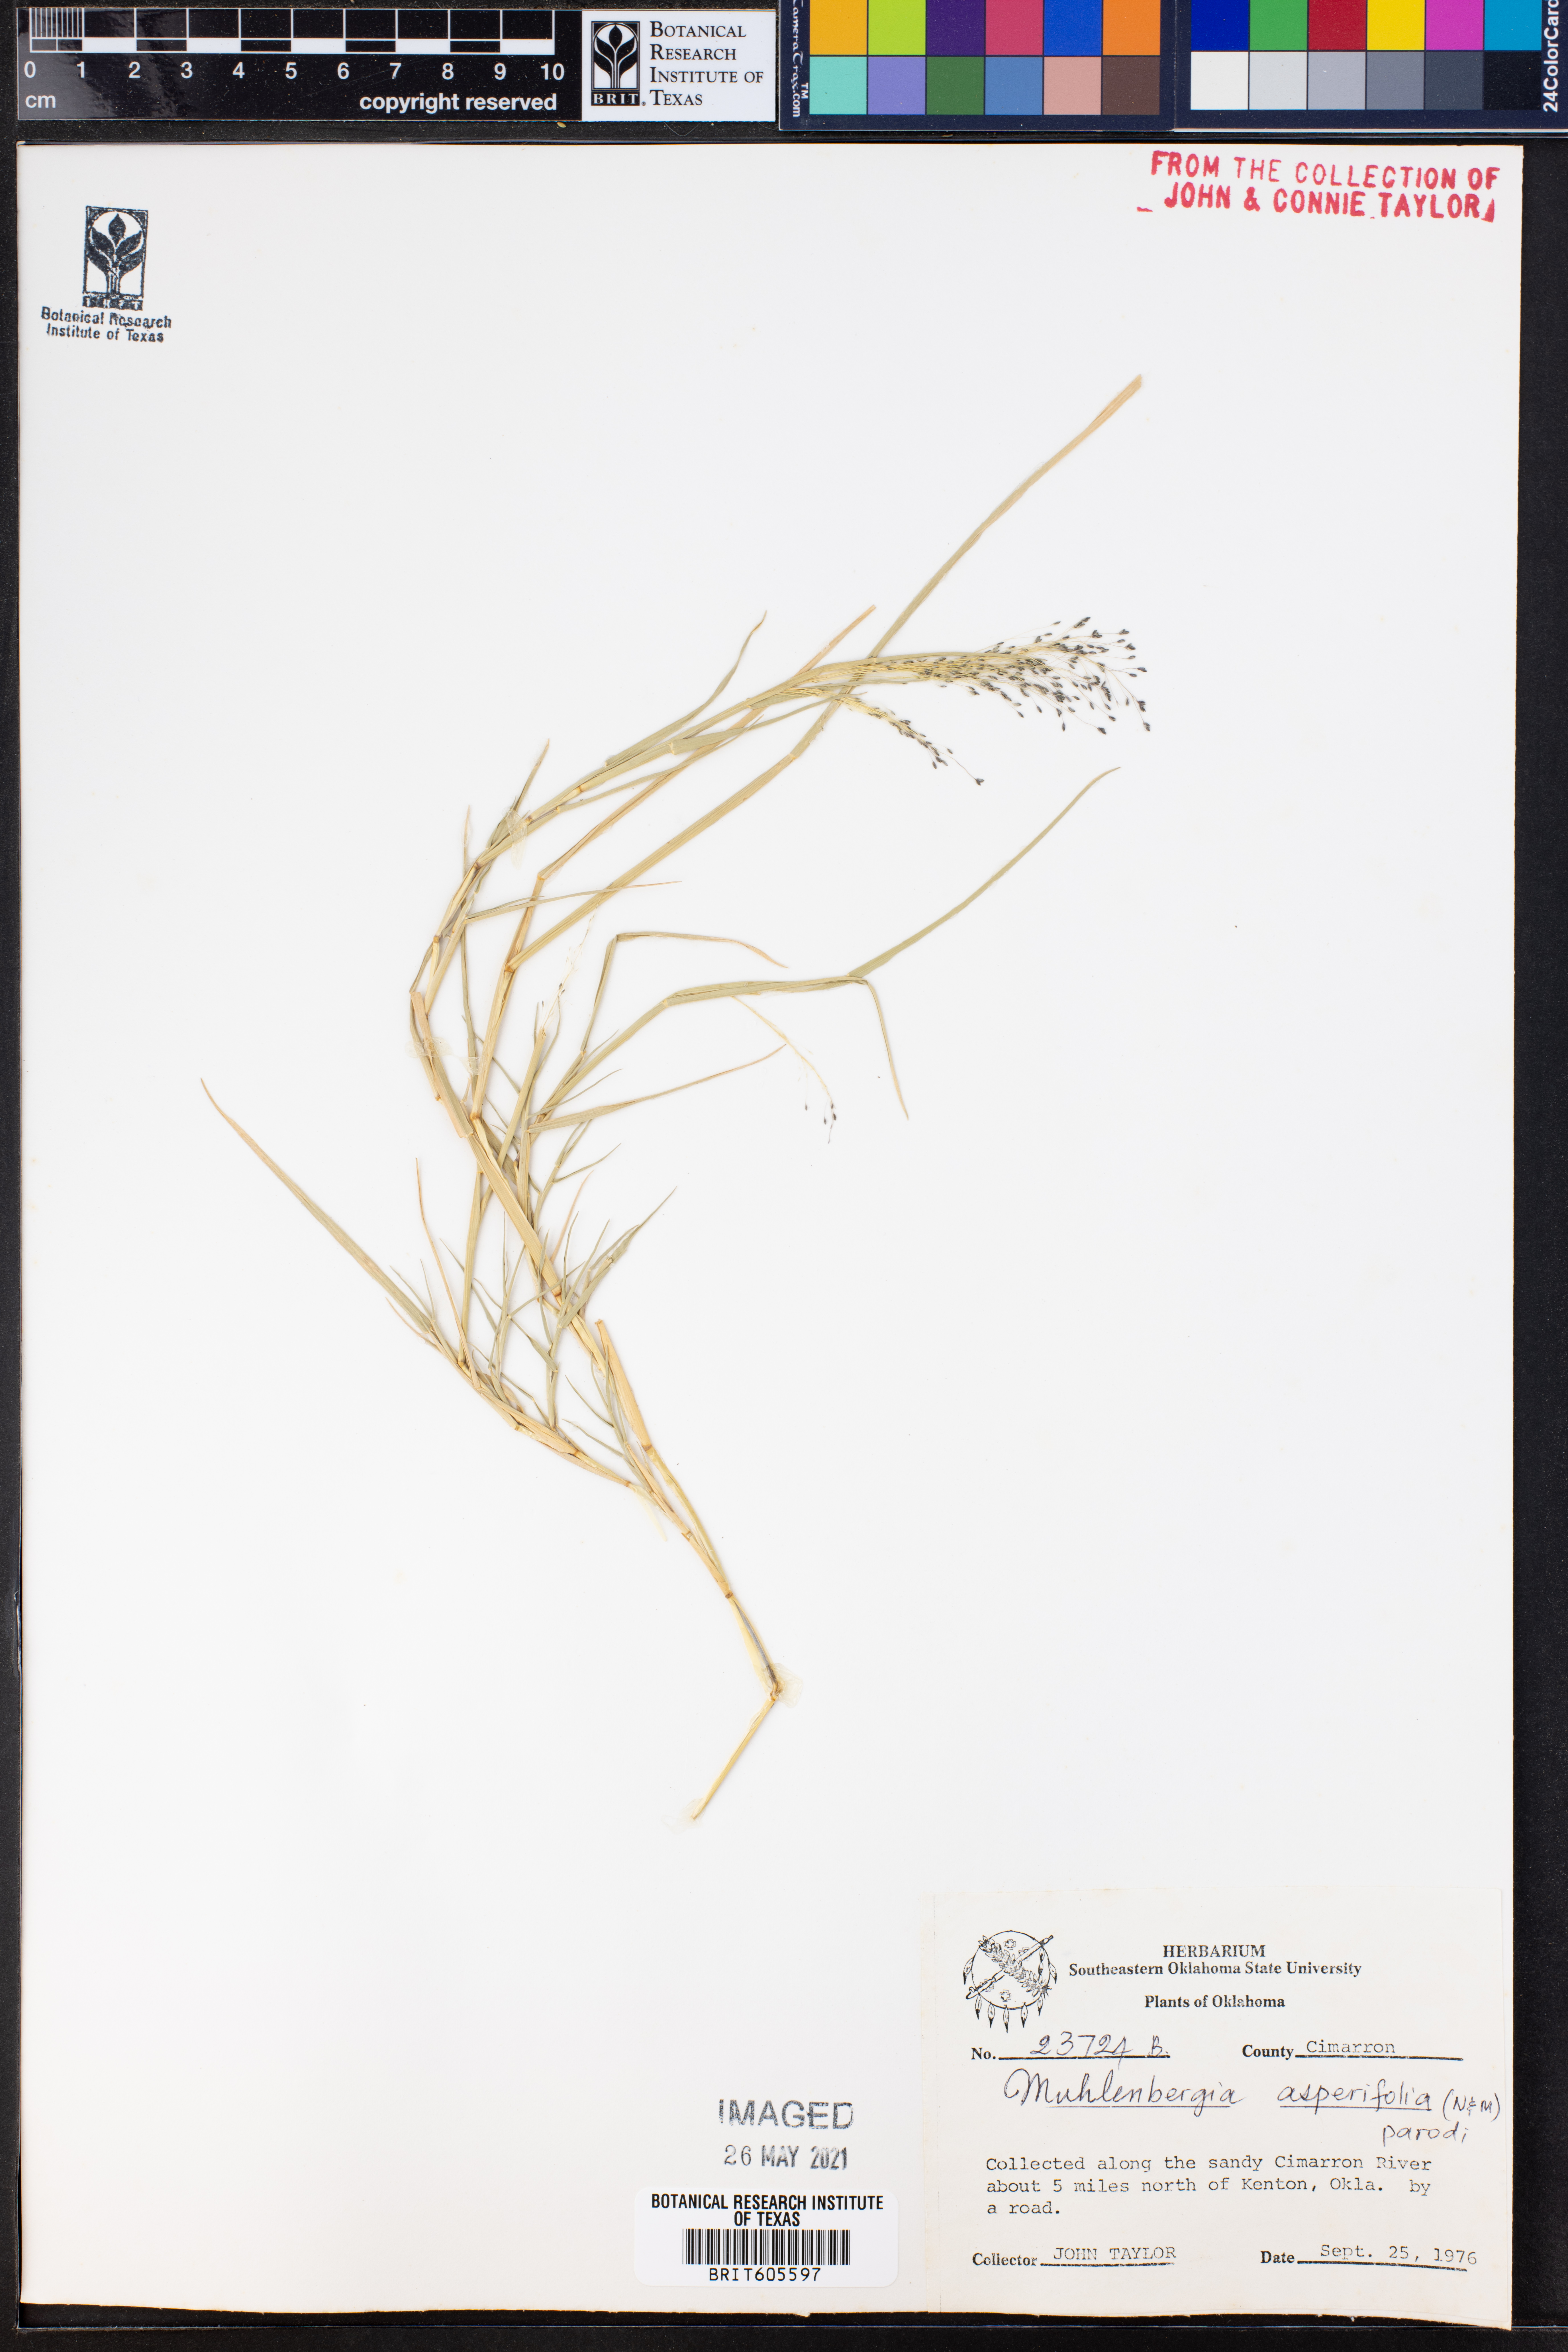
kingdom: Plantae
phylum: Tracheophyta
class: Liliopsida
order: Poales
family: Poaceae
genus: Muhlenbergia
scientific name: Muhlenbergia asperifolia
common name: Alkali muhly
